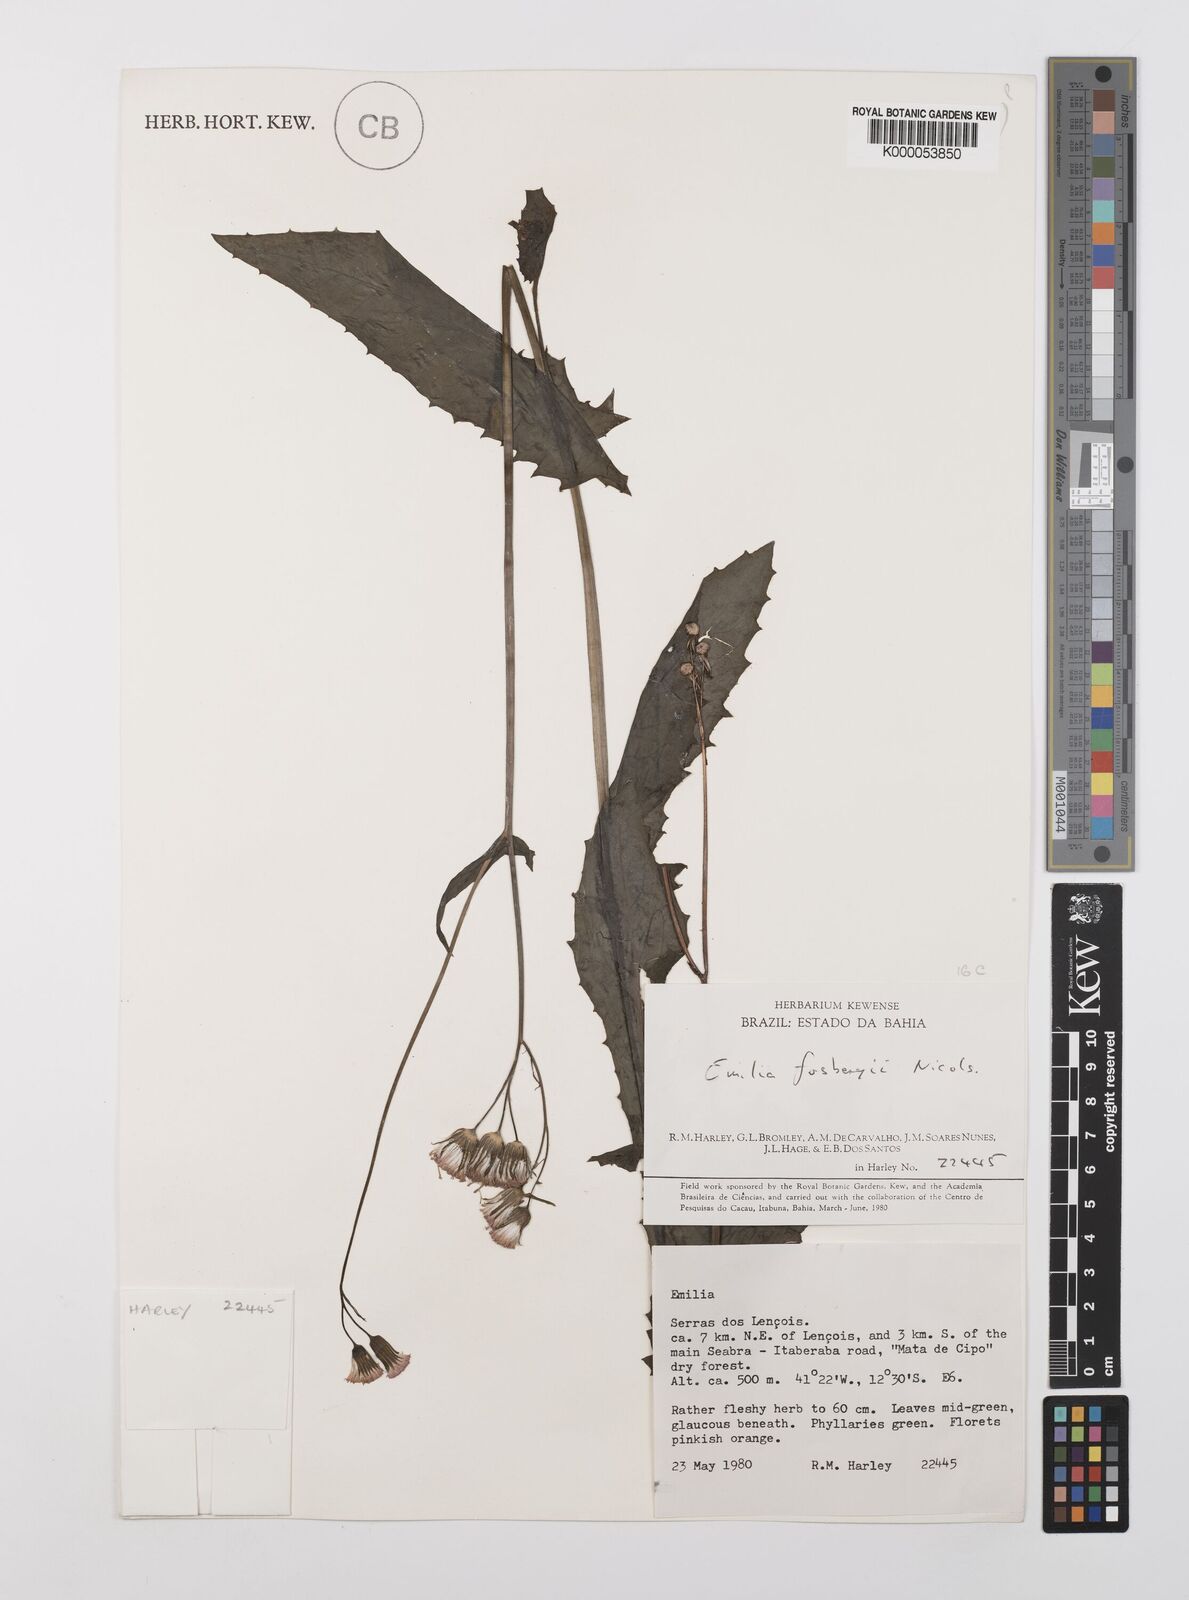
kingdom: Plantae
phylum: Tracheophyta
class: Magnoliopsida
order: Asterales
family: Asteraceae
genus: Emilia
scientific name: Emilia fosbergii
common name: Florida tasselflower
